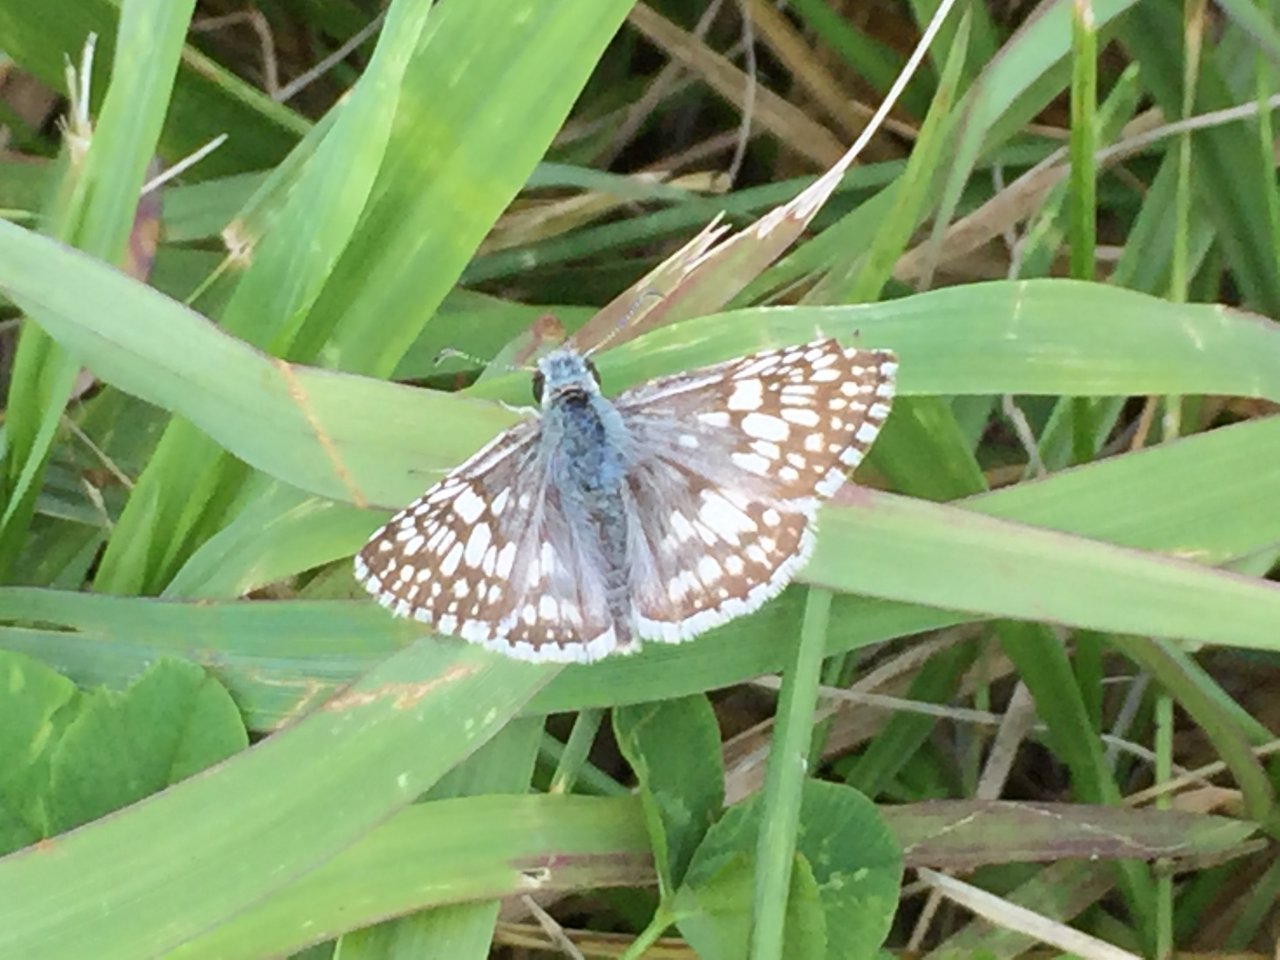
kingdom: Animalia
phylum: Arthropoda
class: Insecta
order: Lepidoptera
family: Hesperiidae
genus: Pyrgus
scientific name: Pyrgus communis
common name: Common Checkered-Skipper
